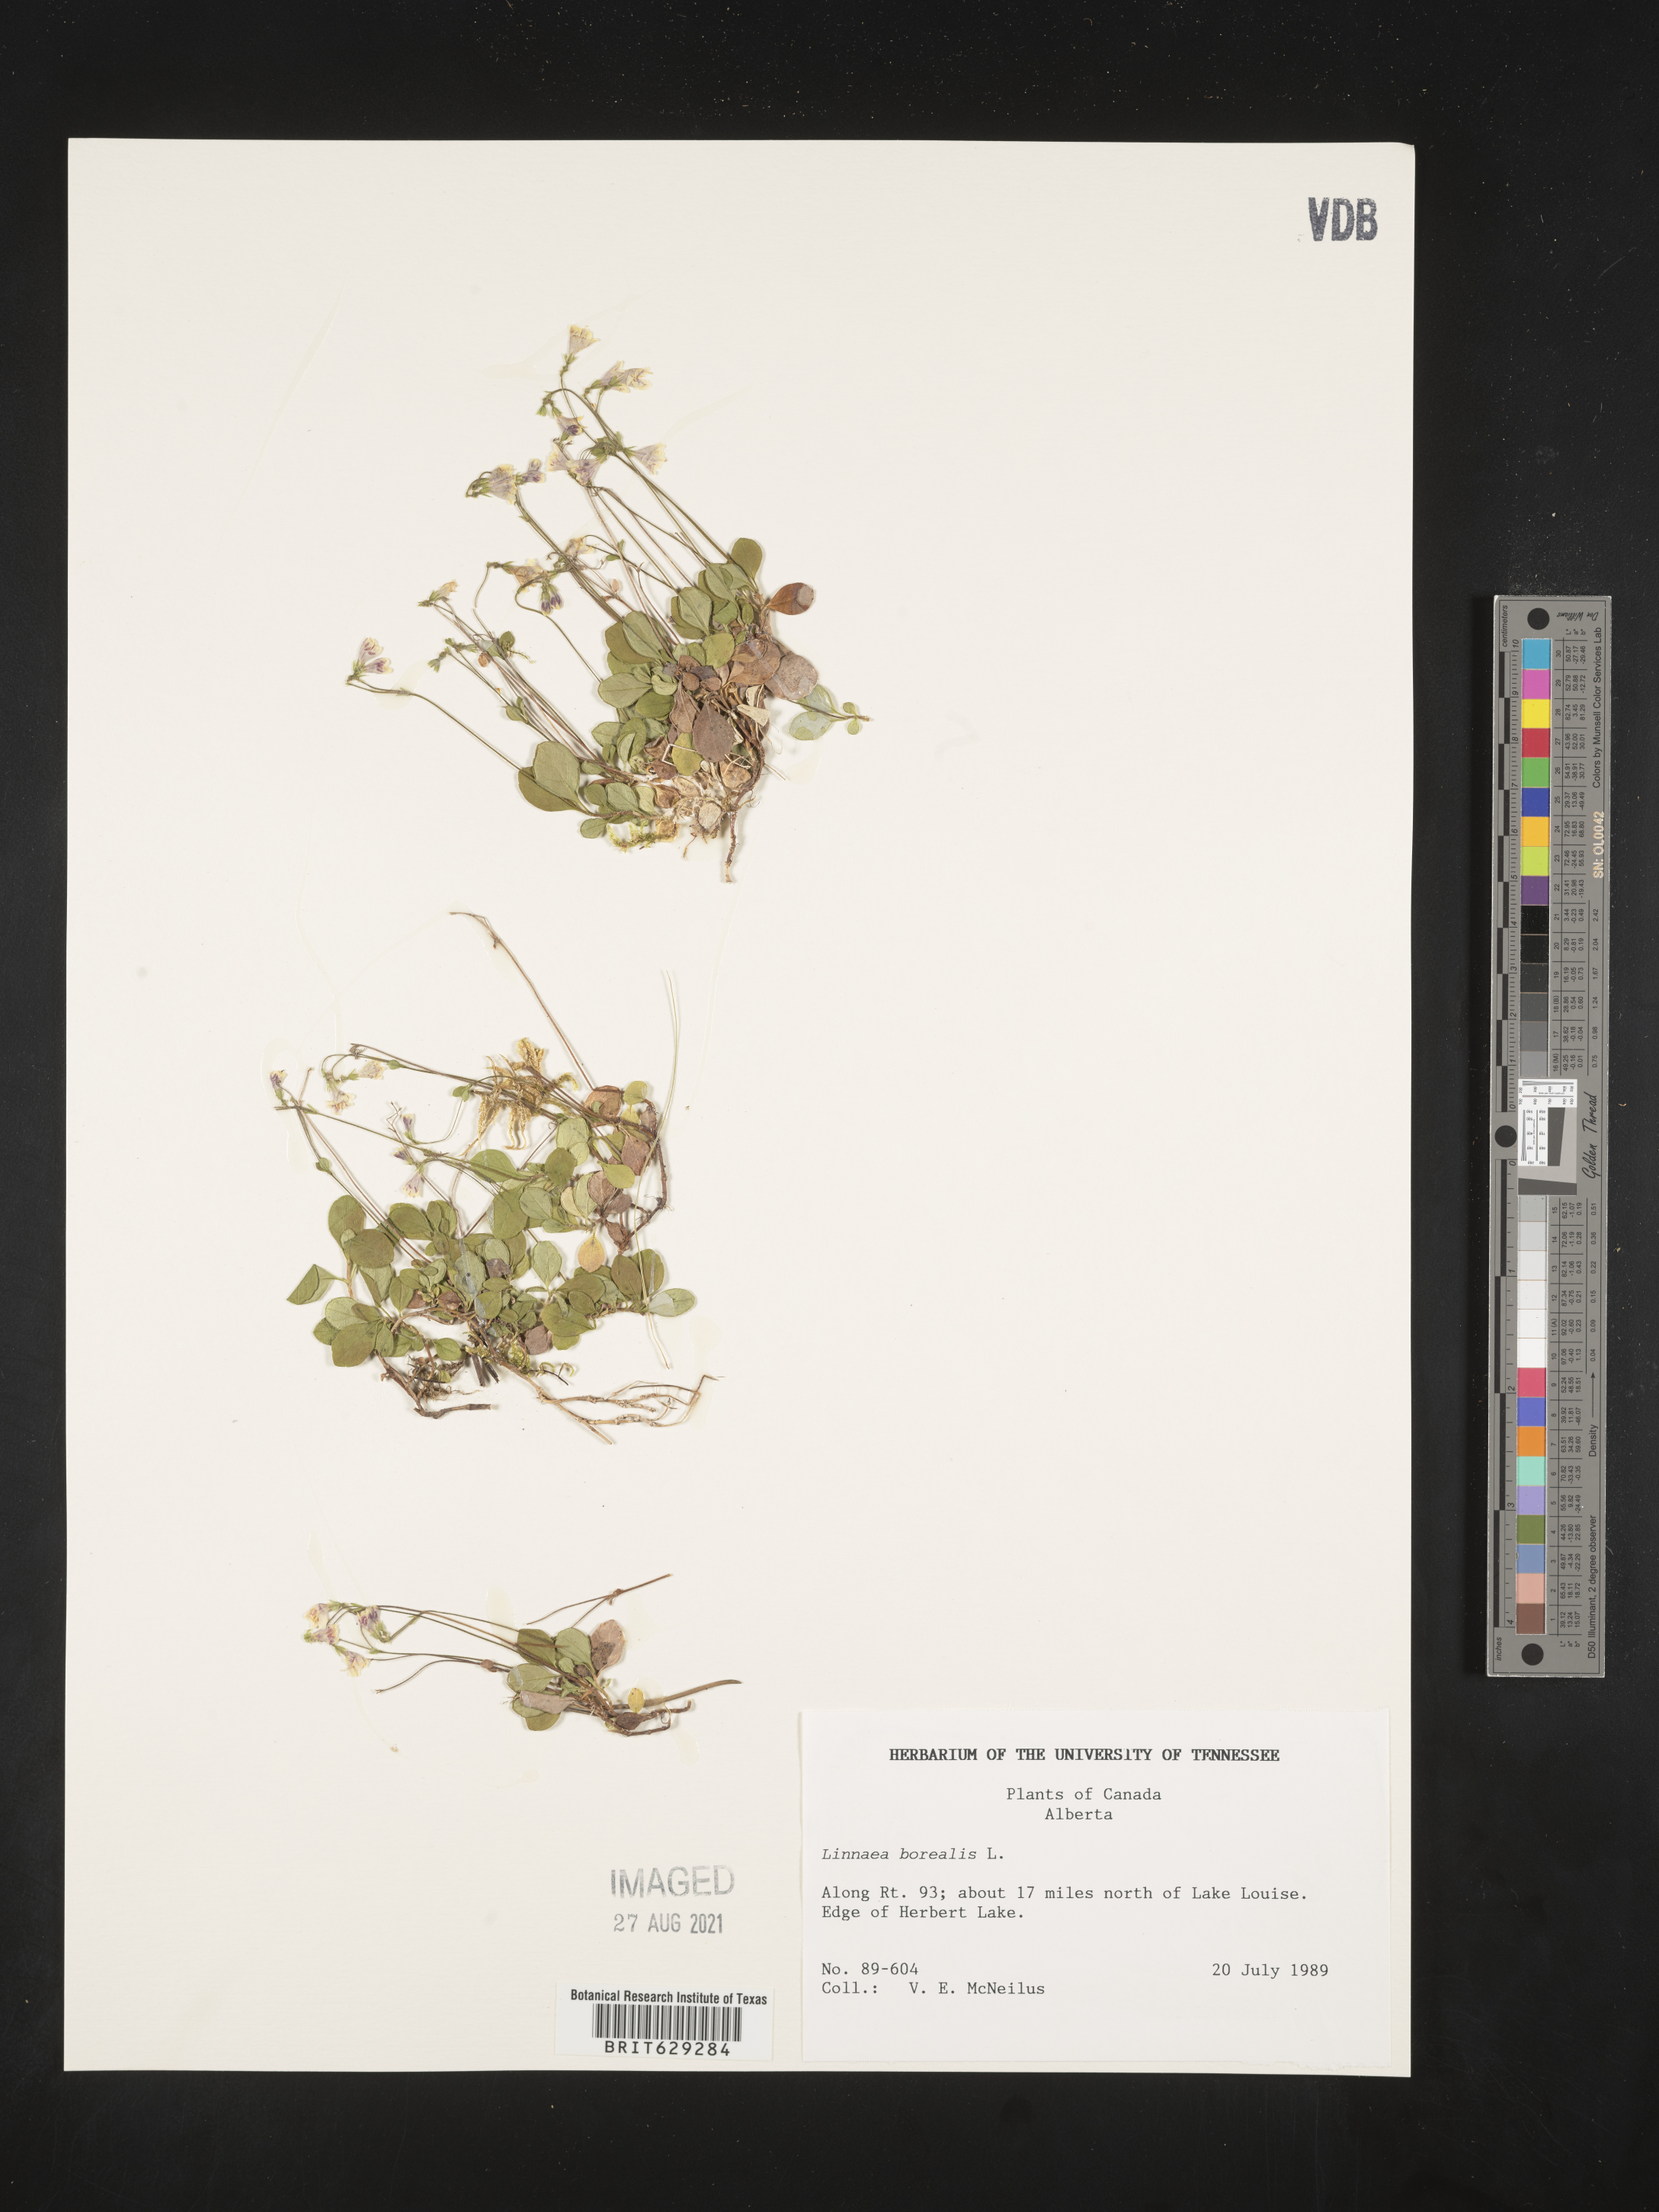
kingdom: Plantae
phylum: Tracheophyta
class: Magnoliopsida
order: Dipsacales
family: Caprifoliaceae
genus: Linnaea
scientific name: Linnaea borealis
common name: Twinflower
